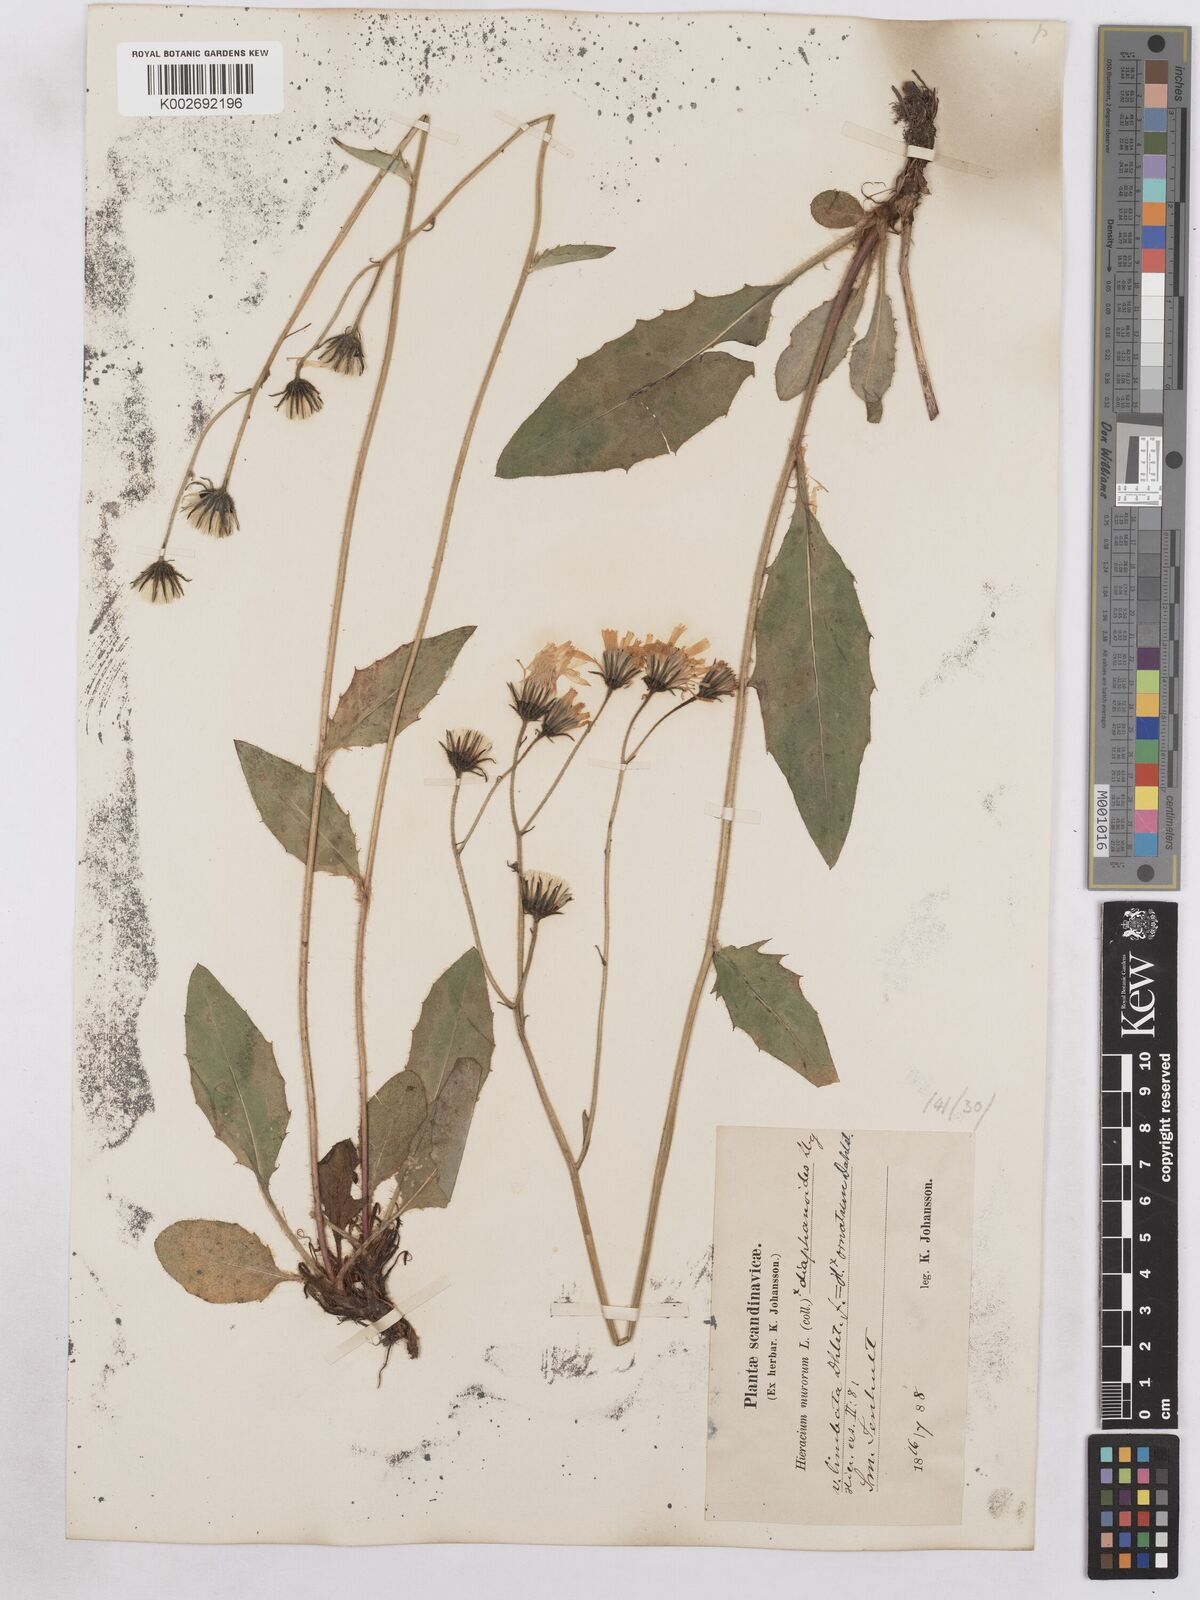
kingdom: Plantae
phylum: Tracheophyta
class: Magnoliopsida
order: Asterales
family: Asteraceae
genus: Hieracium
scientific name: Hieracium diaphanoides
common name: Fine-bracted hawkweed
